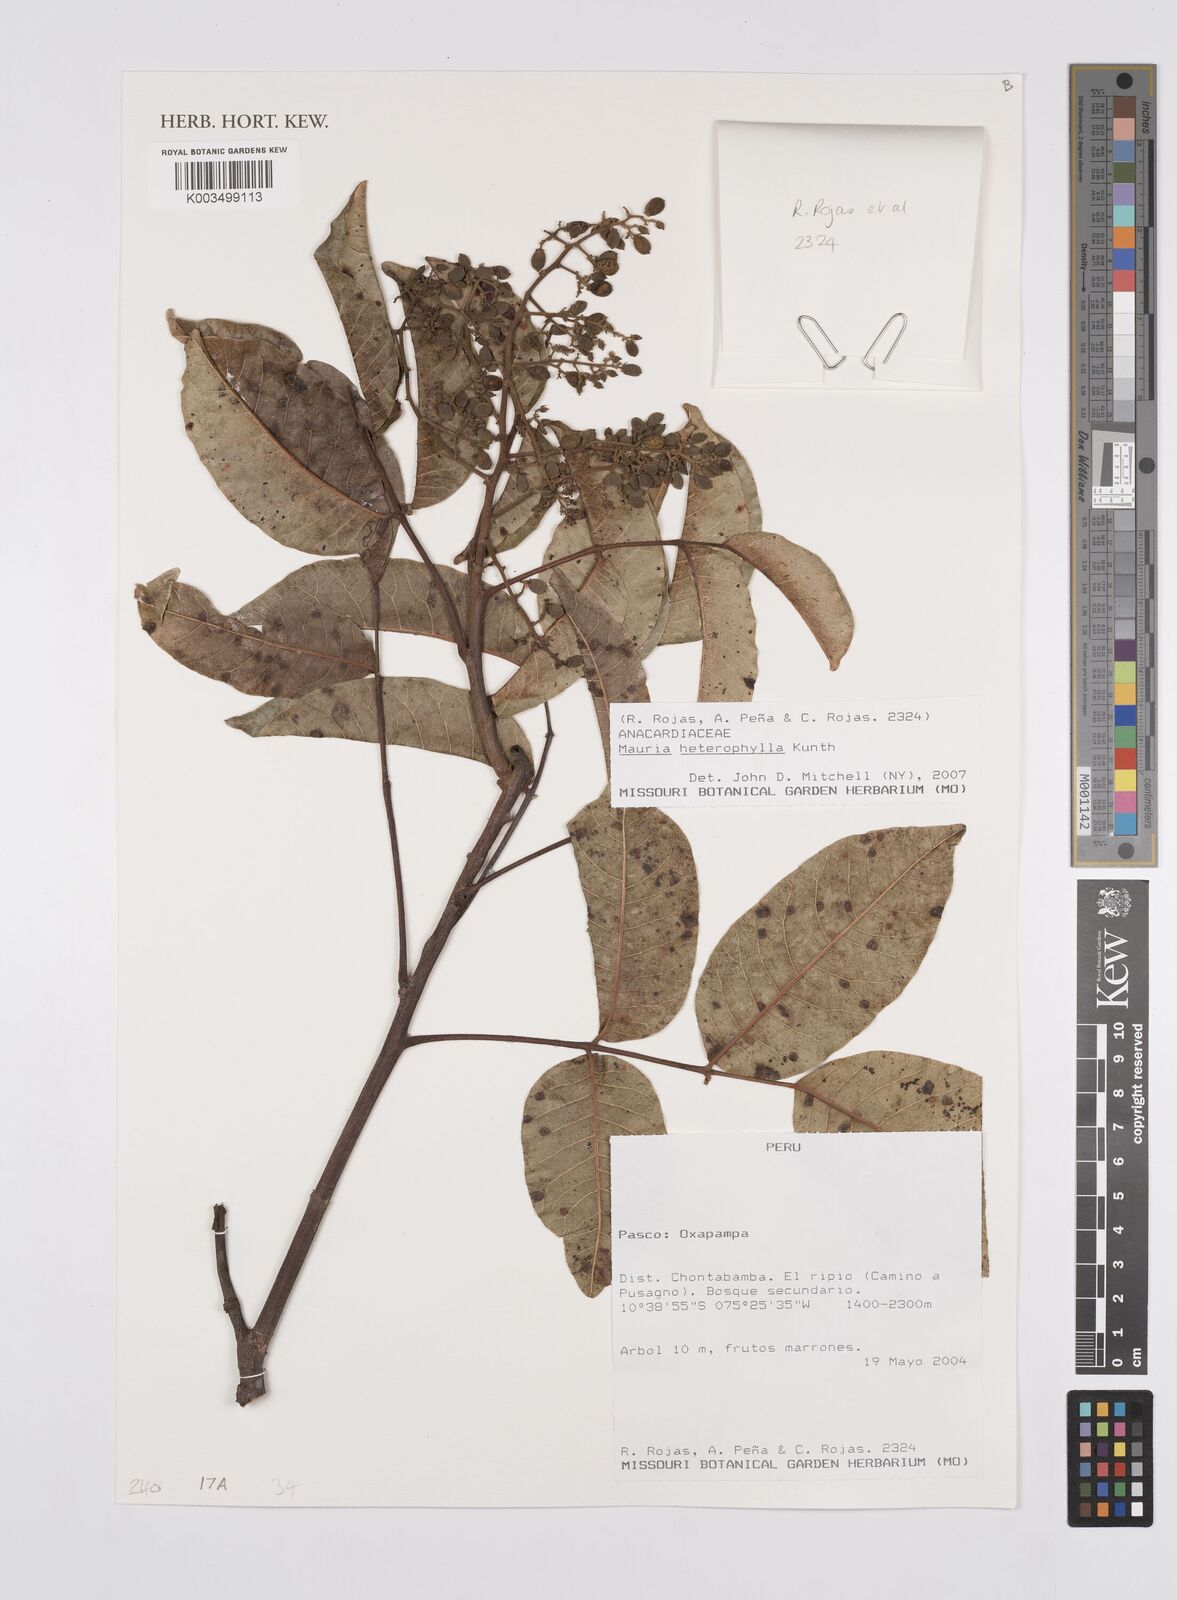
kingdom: Plantae
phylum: Tracheophyta
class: Magnoliopsida
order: Sapindales
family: Anacardiaceae
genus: Mauria
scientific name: Mauria heterophylla
